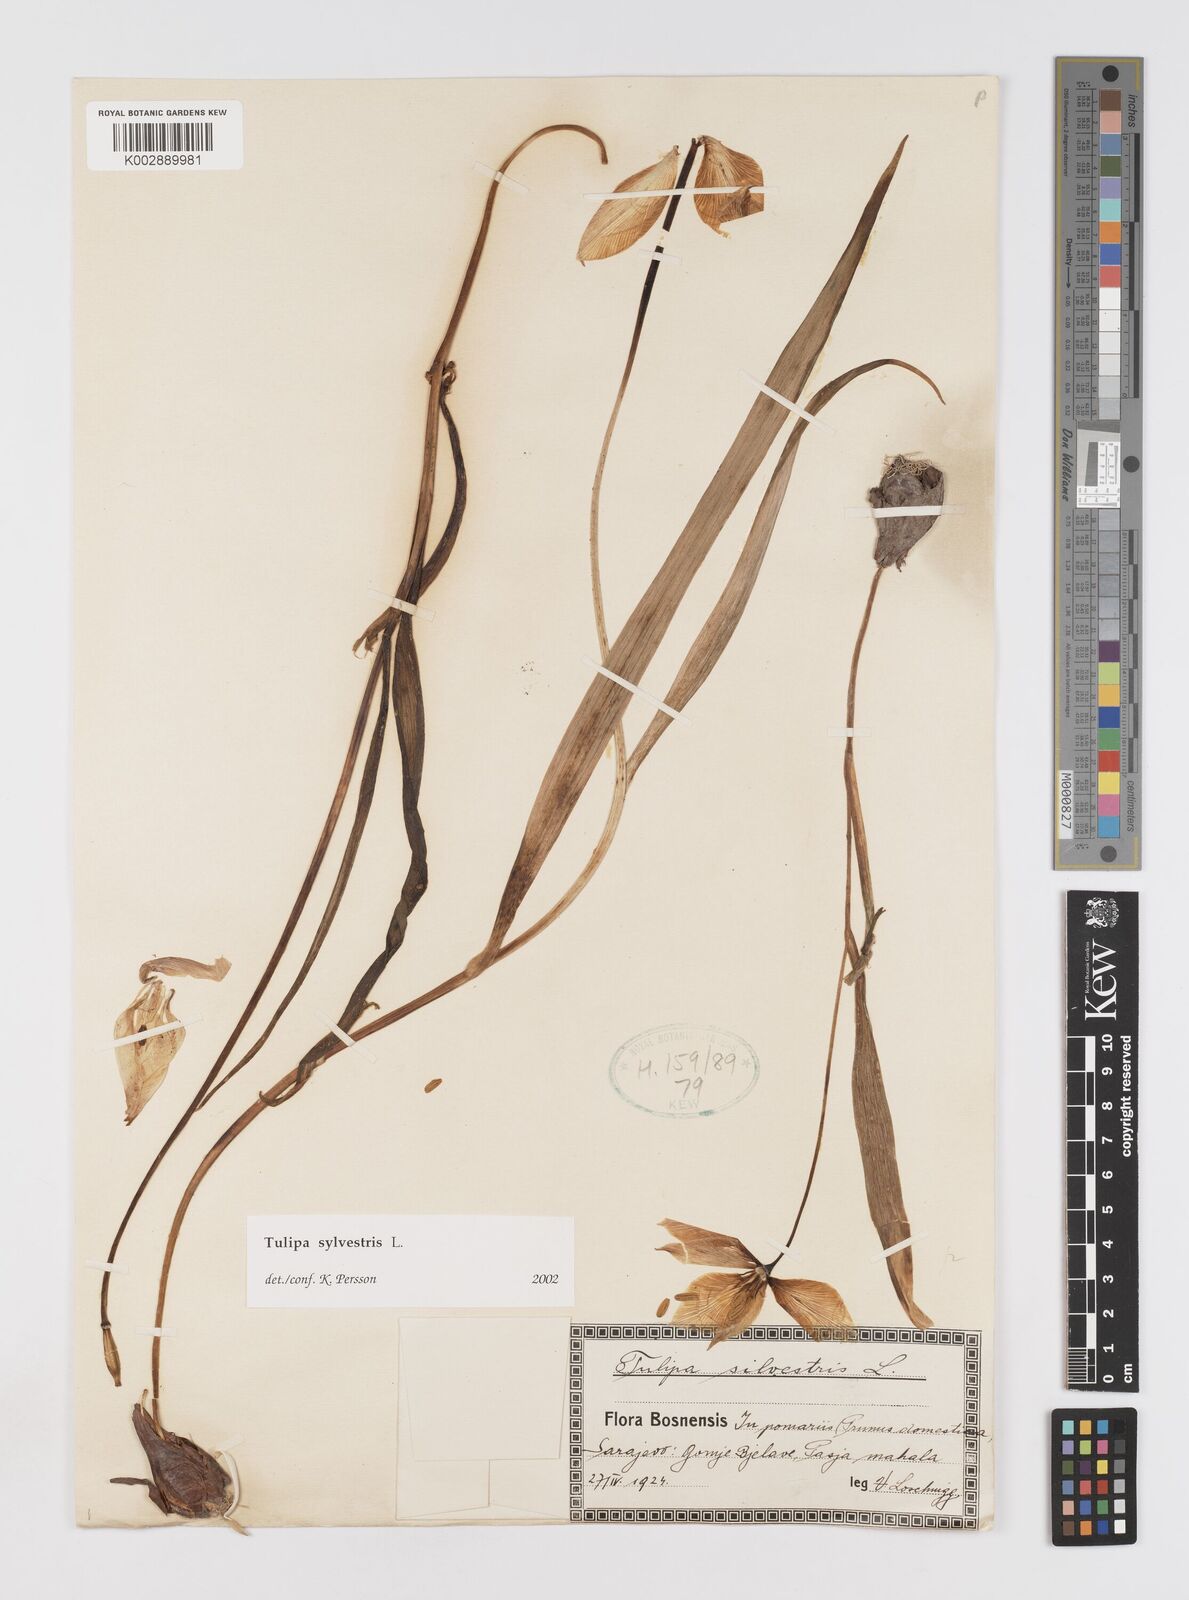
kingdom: Plantae
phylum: Tracheophyta
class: Liliopsida
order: Liliales
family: Liliaceae
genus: Tulipa
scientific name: Tulipa sylvestris
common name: Wild tulip
